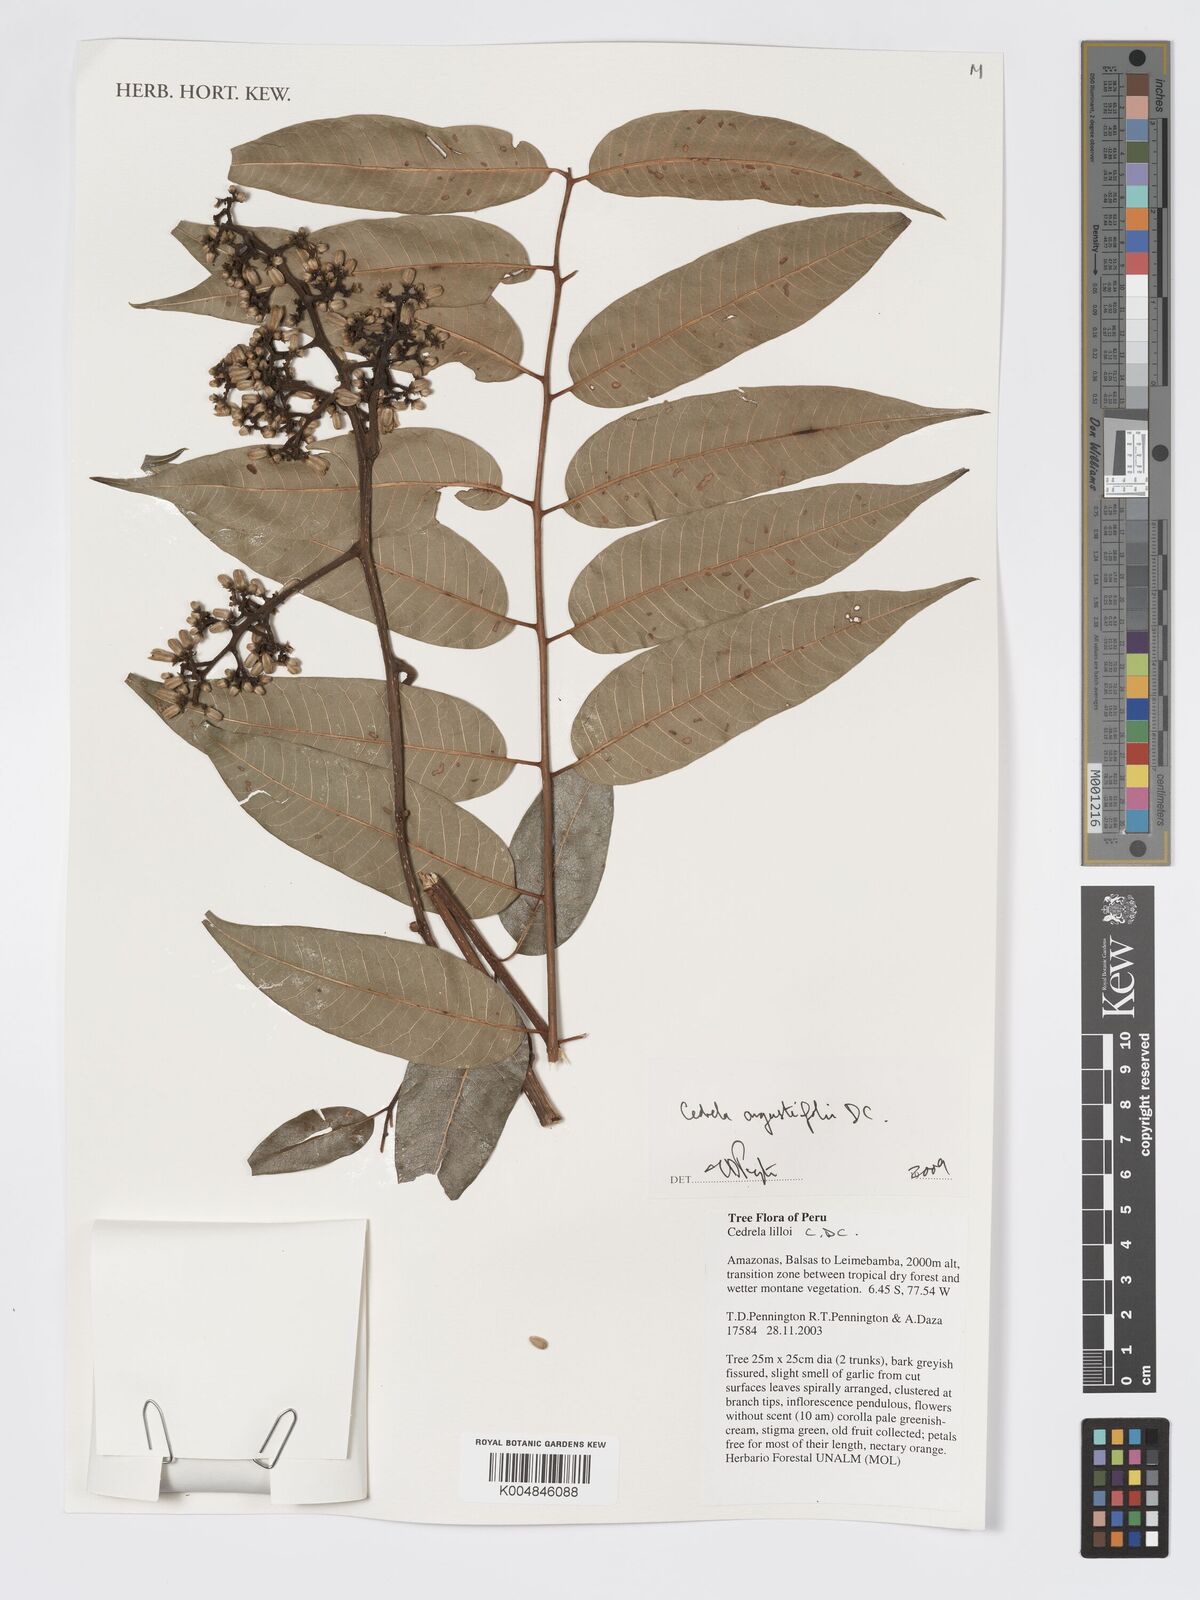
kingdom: Plantae
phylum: Tracheophyta
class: Magnoliopsida
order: Sapindales
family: Meliaceae
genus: Cedrela
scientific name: Cedrela odorata
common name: Red cedar
